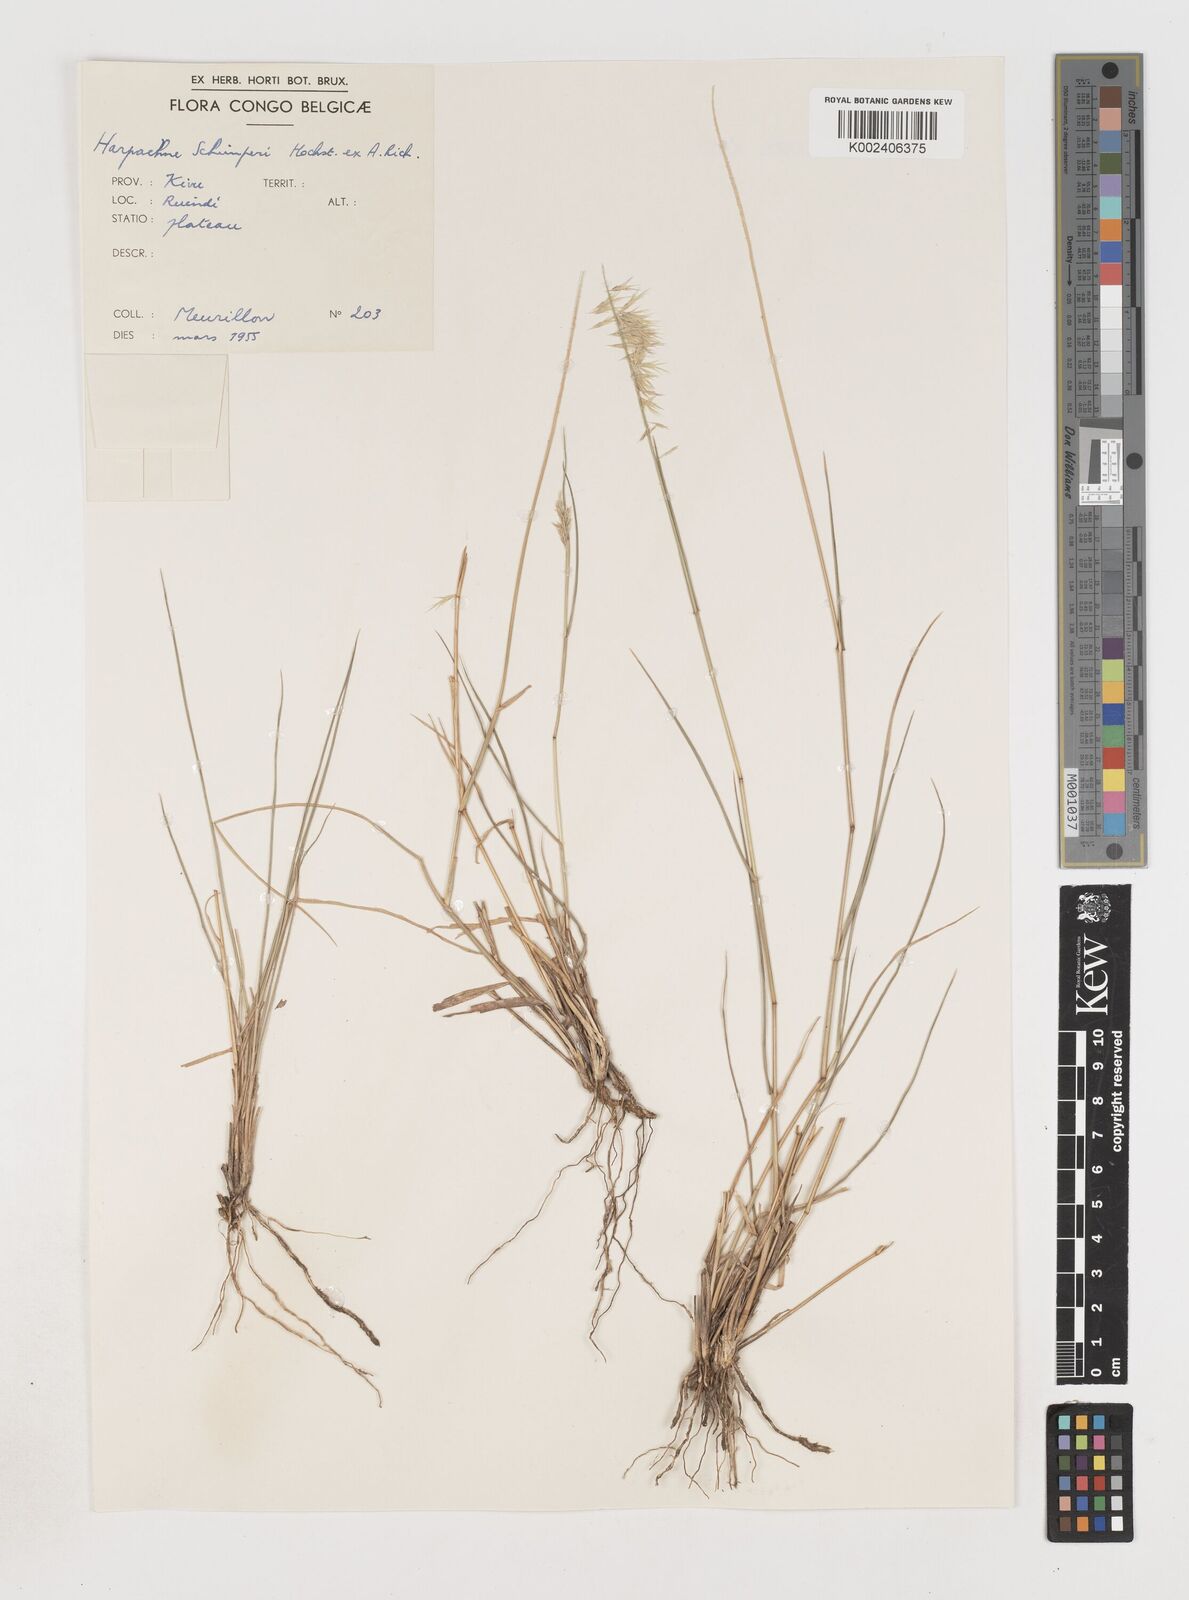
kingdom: Plantae
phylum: Tracheophyta
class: Liliopsida
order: Poales
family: Poaceae
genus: Harpachne
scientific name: Harpachne schimperi
